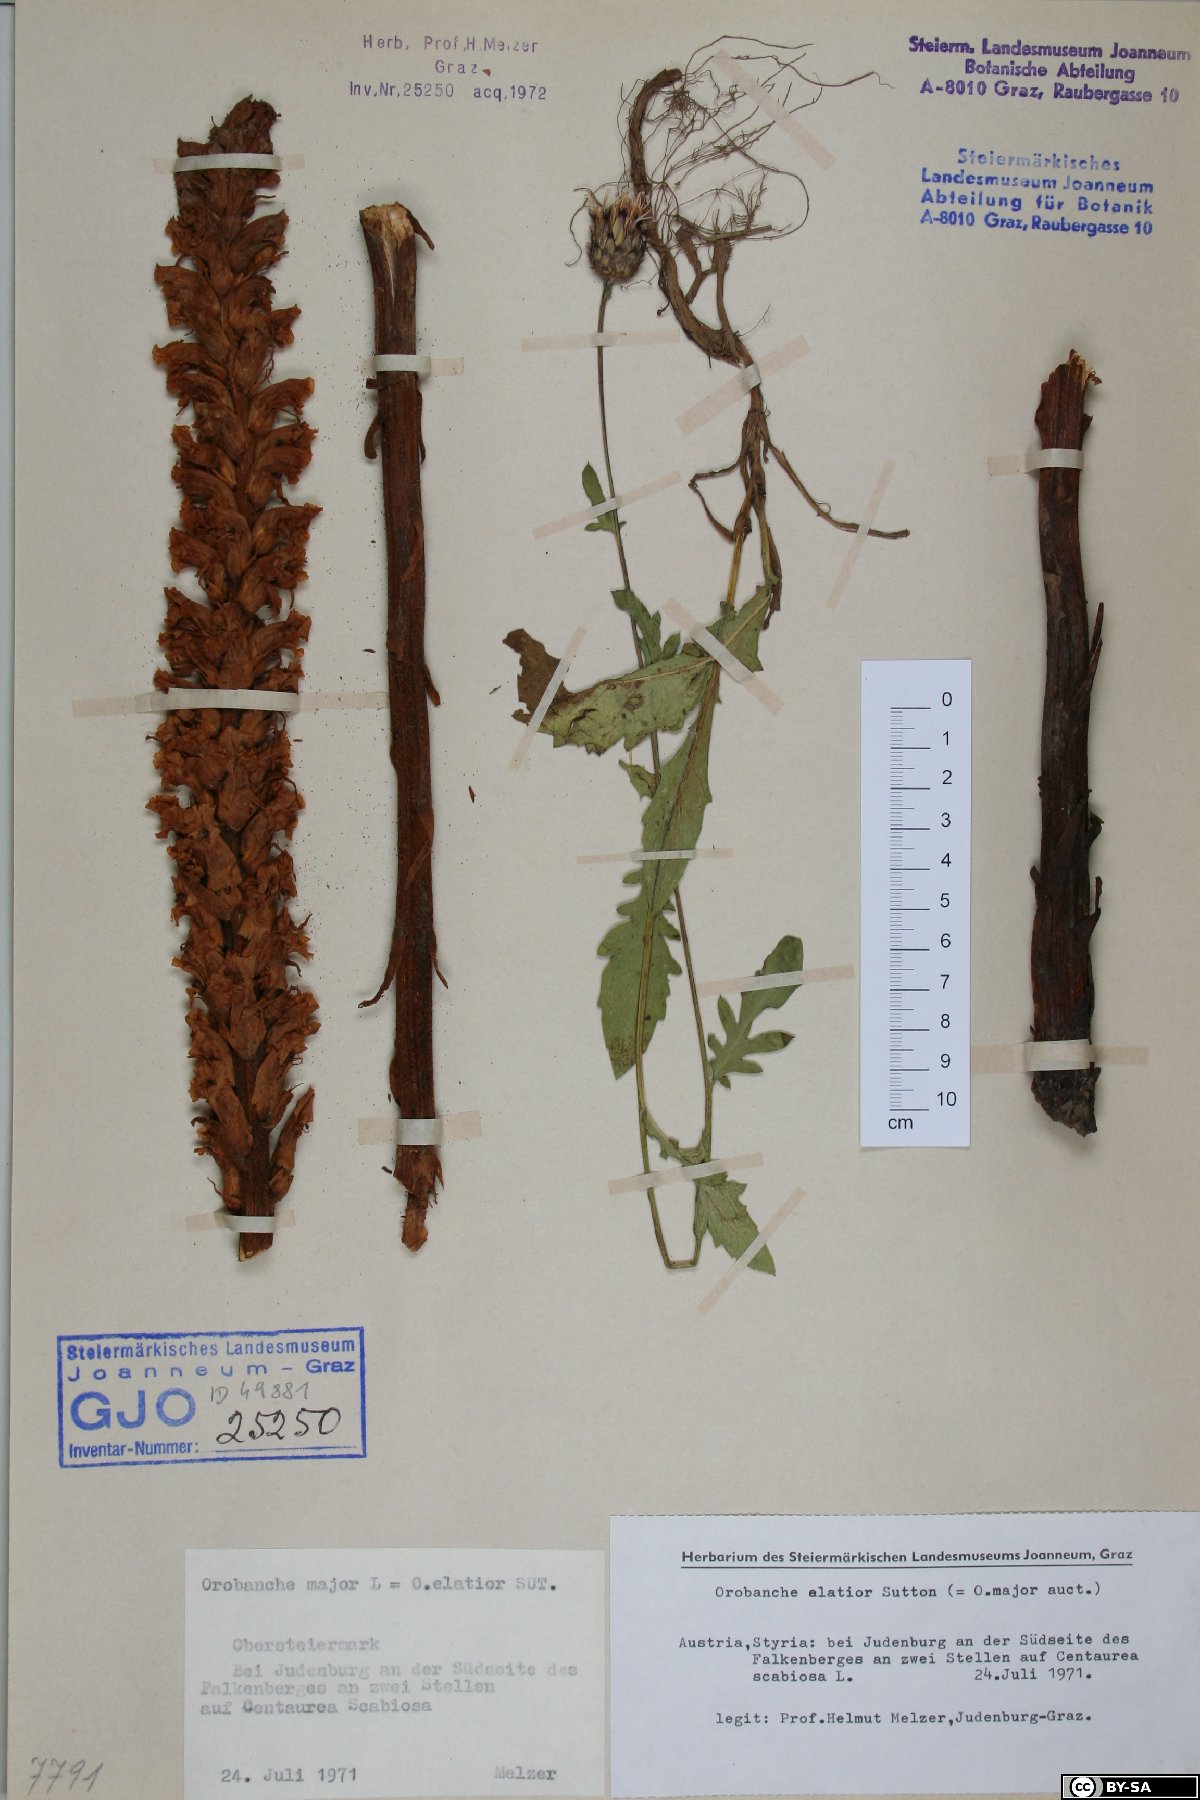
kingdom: Plantae
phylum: Tracheophyta
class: Magnoliopsida
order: Lamiales
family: Orobanchaceae
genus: Orobanche
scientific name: Orobanche rapum-genistae
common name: Greater broomrape
